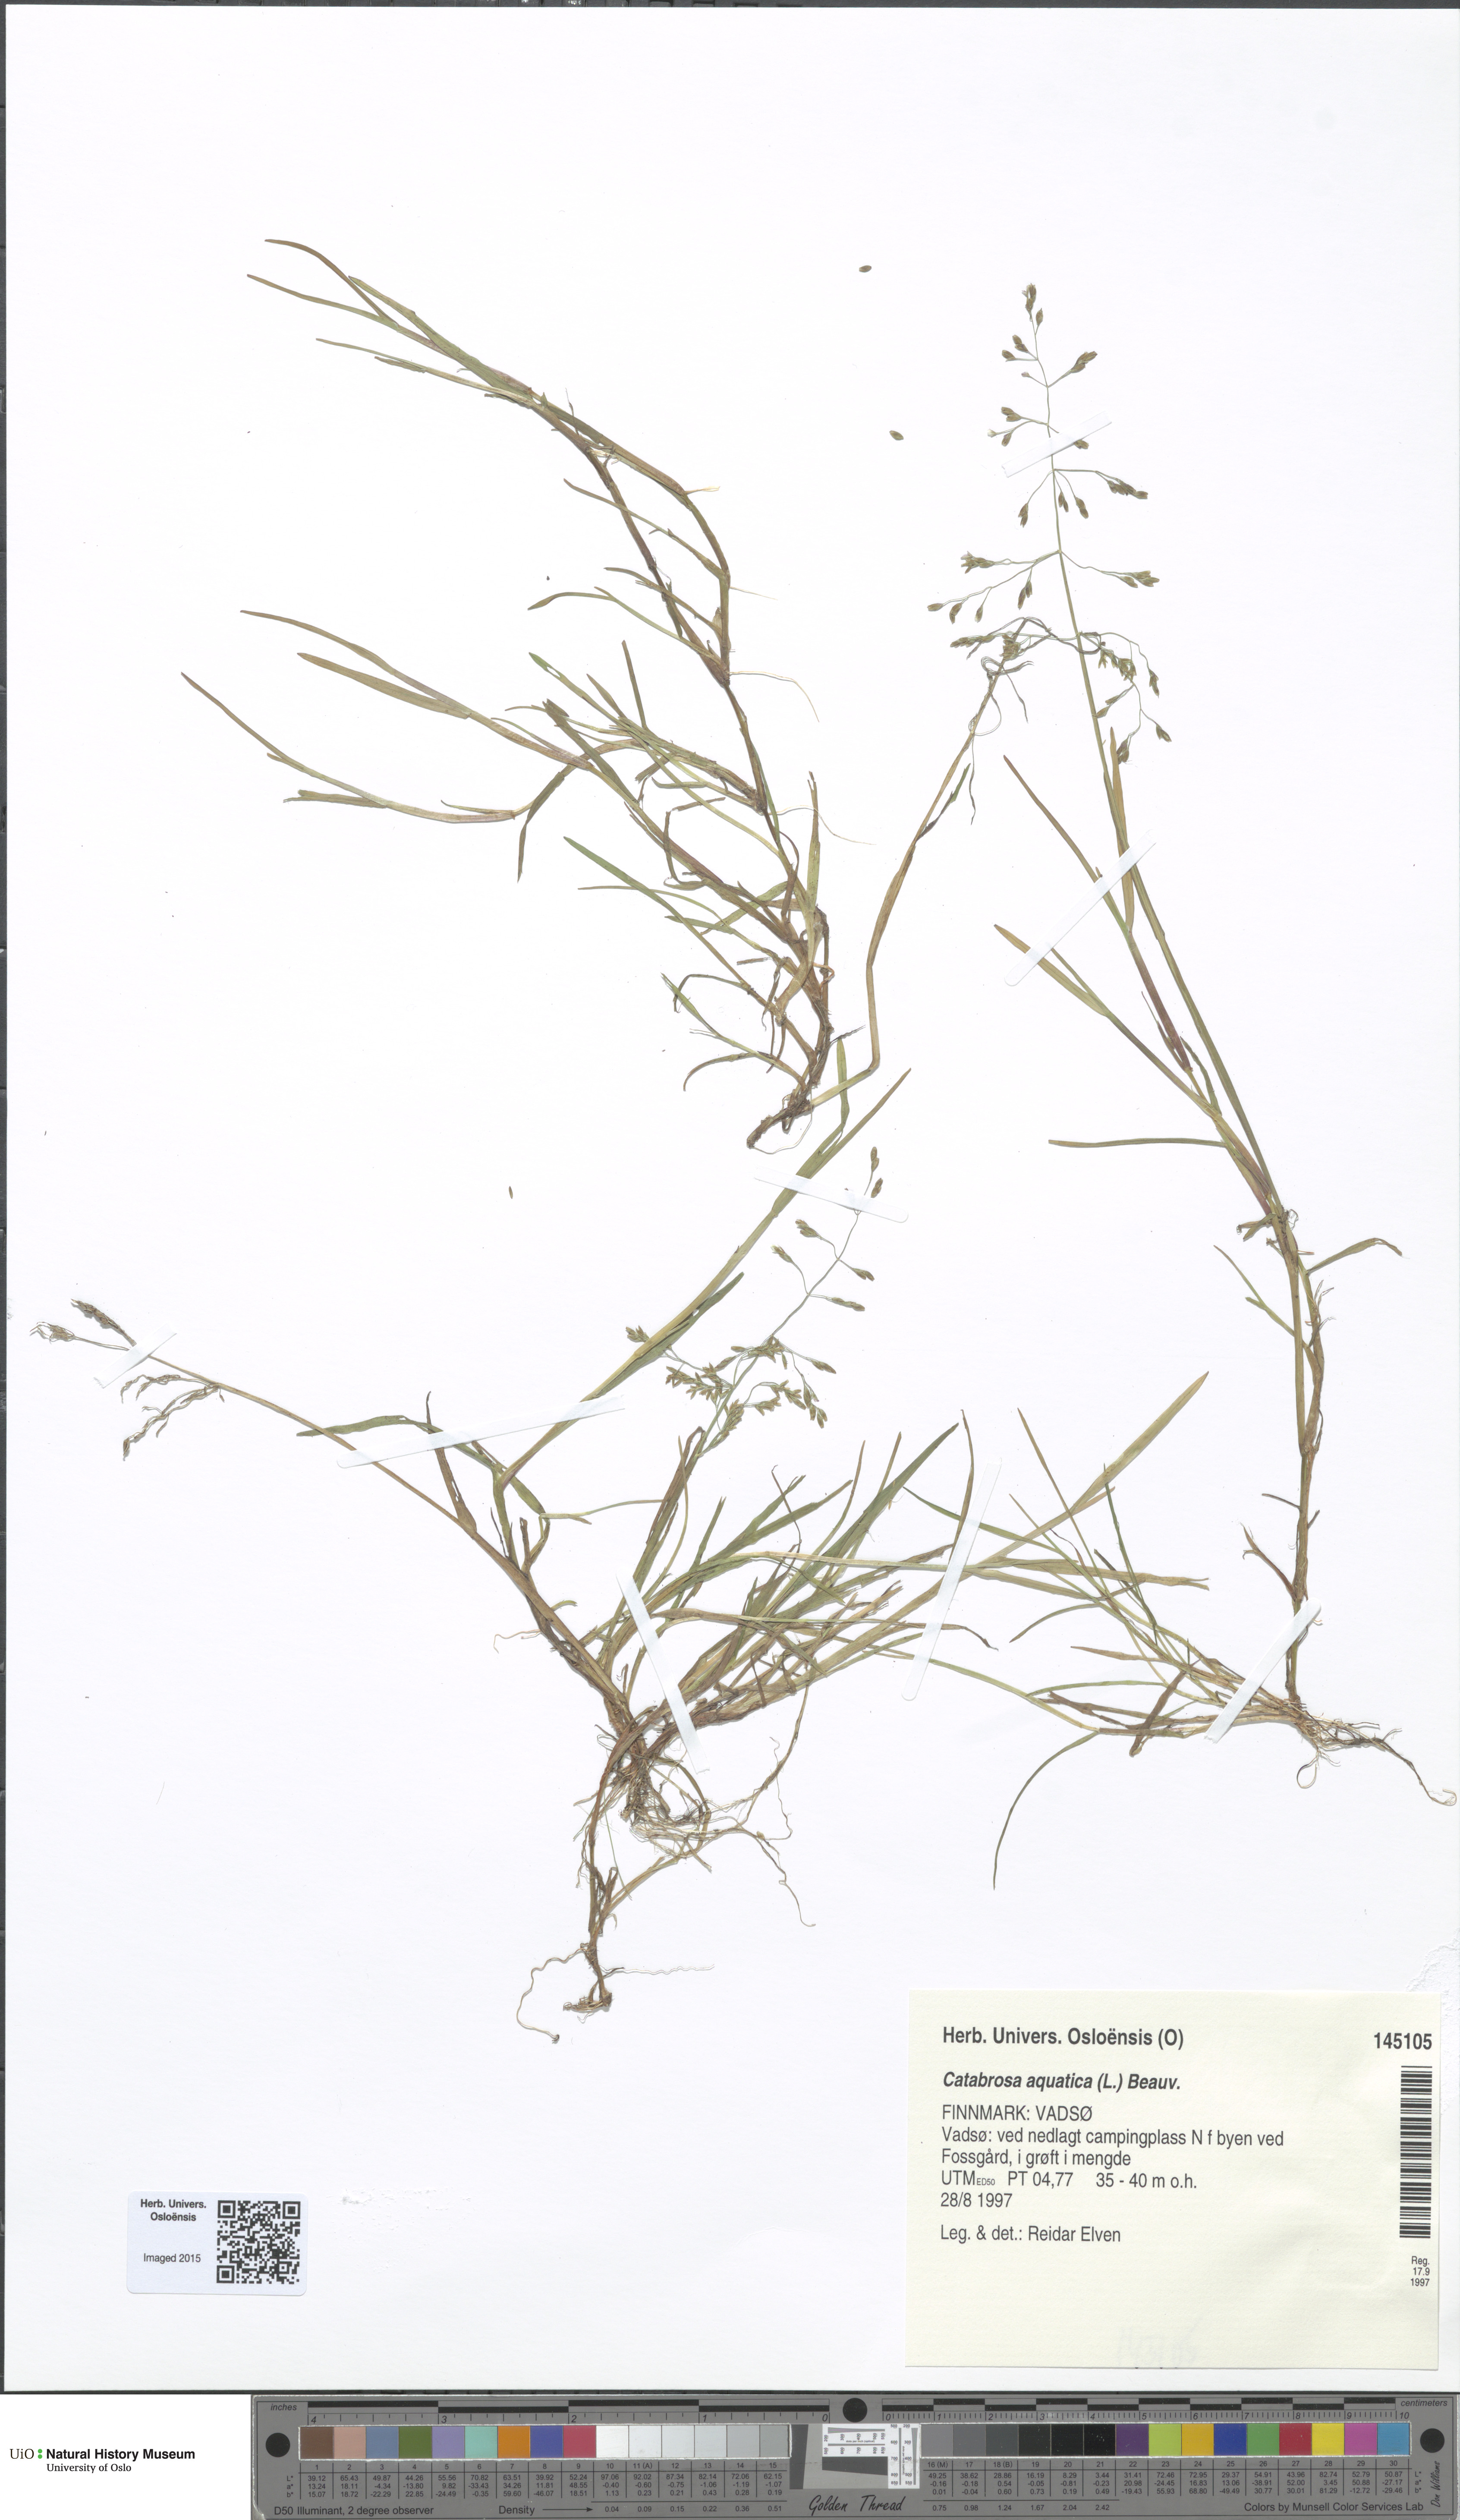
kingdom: Plantae
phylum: Tracheophyta
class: Liliopsida
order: Poales
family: Poaceae
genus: Catabrosa
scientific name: Catabrosa aquatica
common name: Whorl-grass
